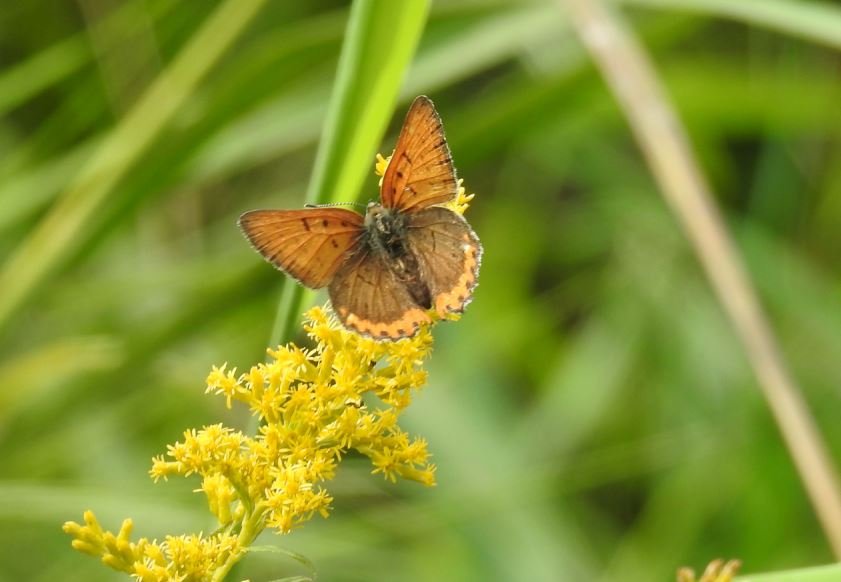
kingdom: Animalia
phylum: Arthropoda
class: Insecta
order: Lepidoptera
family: Sesiidae
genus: Sesia
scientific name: Sesia Lycaena hyllus
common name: Bronze Copper
